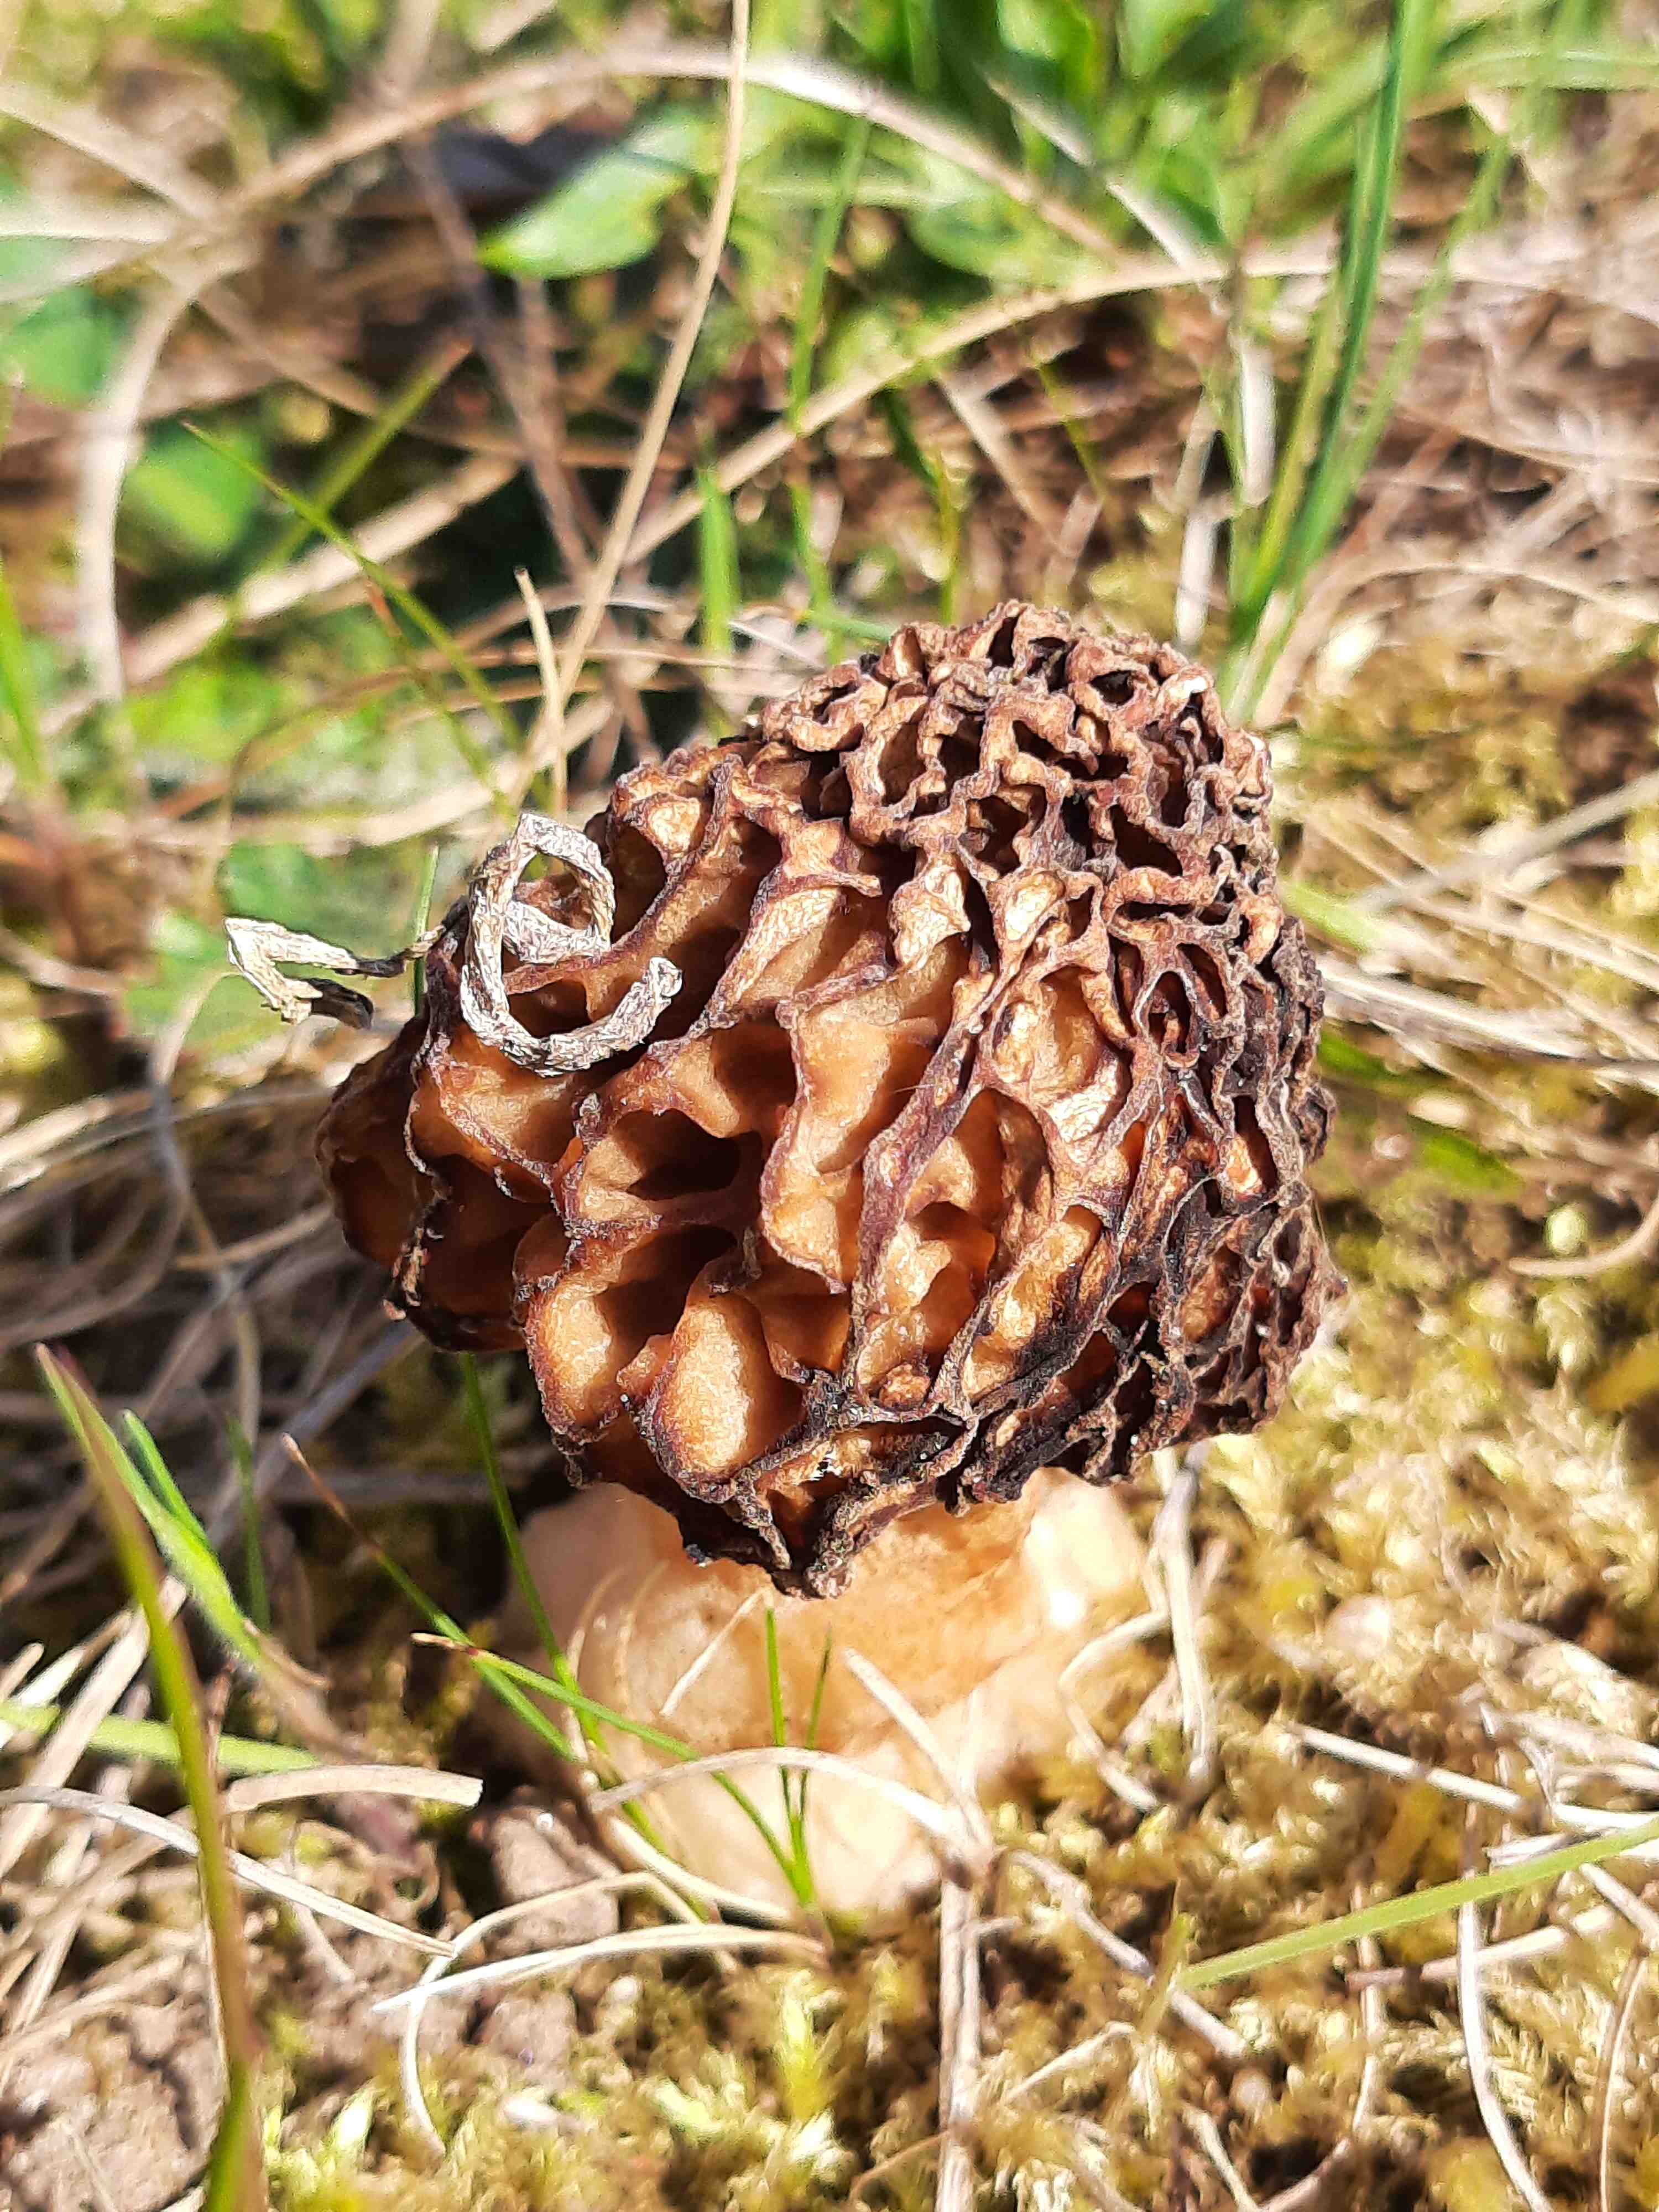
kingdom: Fungi
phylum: Ascomycota
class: Pezizomycetes
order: Pezizales
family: Morchellaceae
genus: Morchella
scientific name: Morchella esculenta
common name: spiselig morkel
